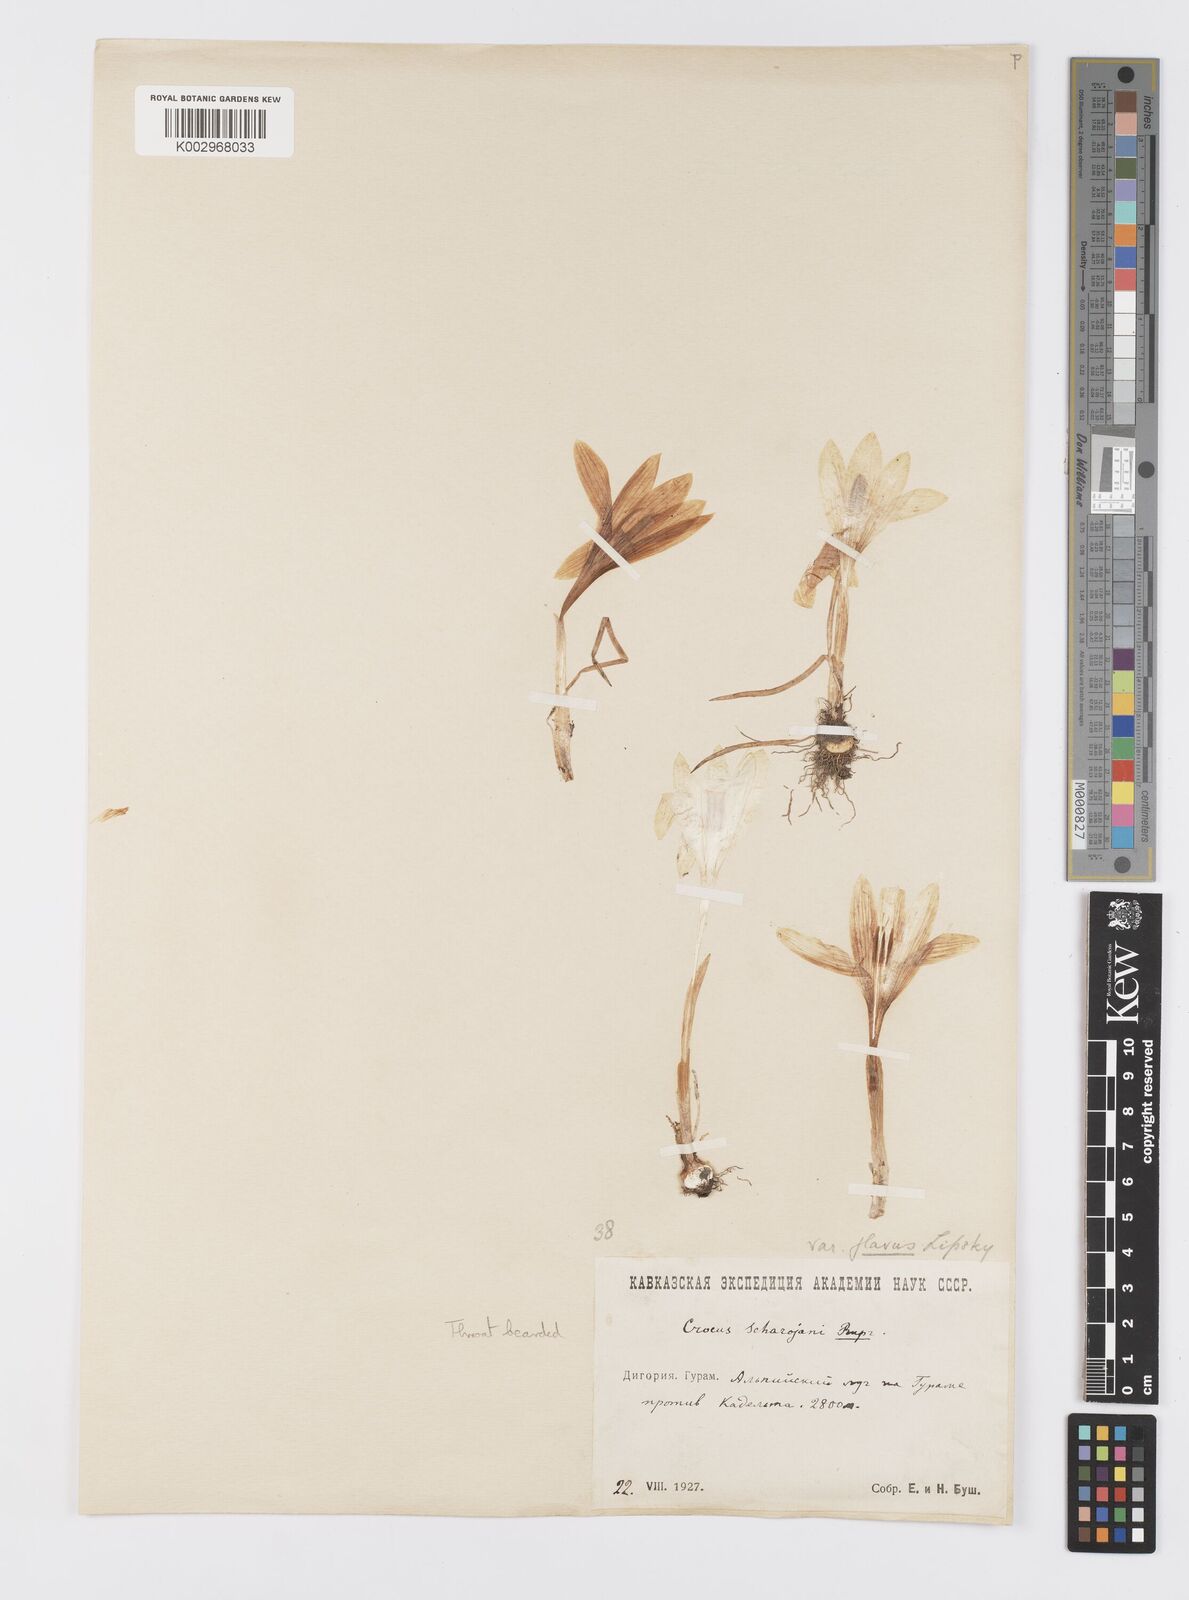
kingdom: Plantae
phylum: Tracheophyta
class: Liliopsida
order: Asparagales
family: Iridaceae
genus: Crocus
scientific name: Crocus
